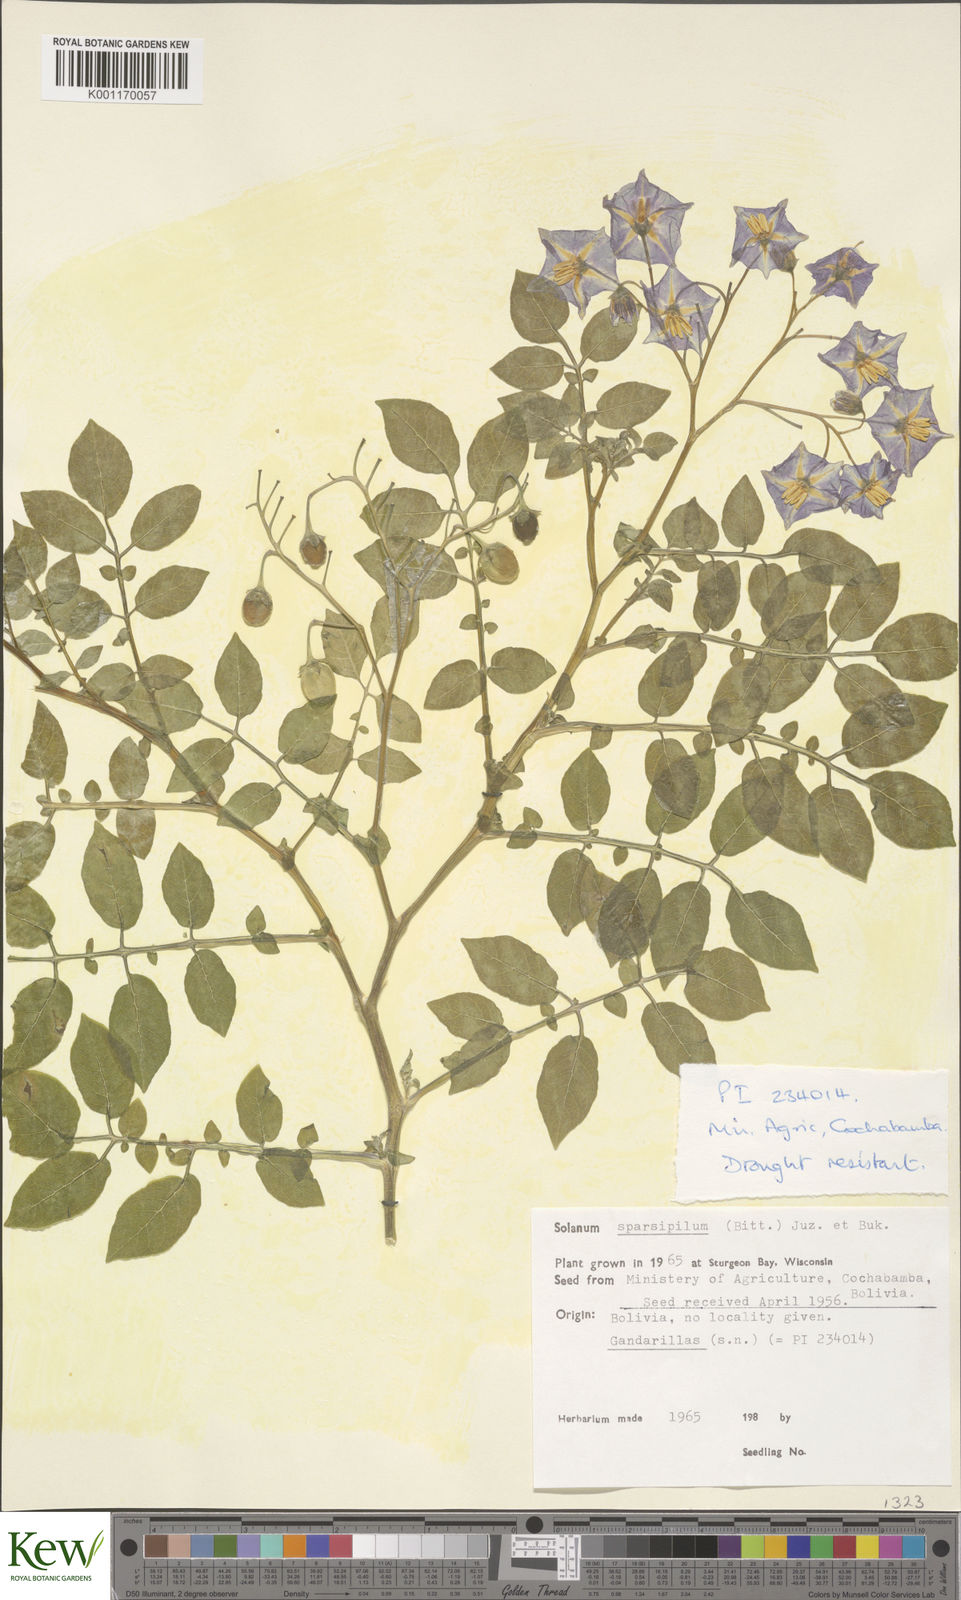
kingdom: Plantae
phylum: Tracheophyta
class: Magnoliopsida
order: Solanales
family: Solanaceae
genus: Solanum
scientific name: Solanum brevicaule
